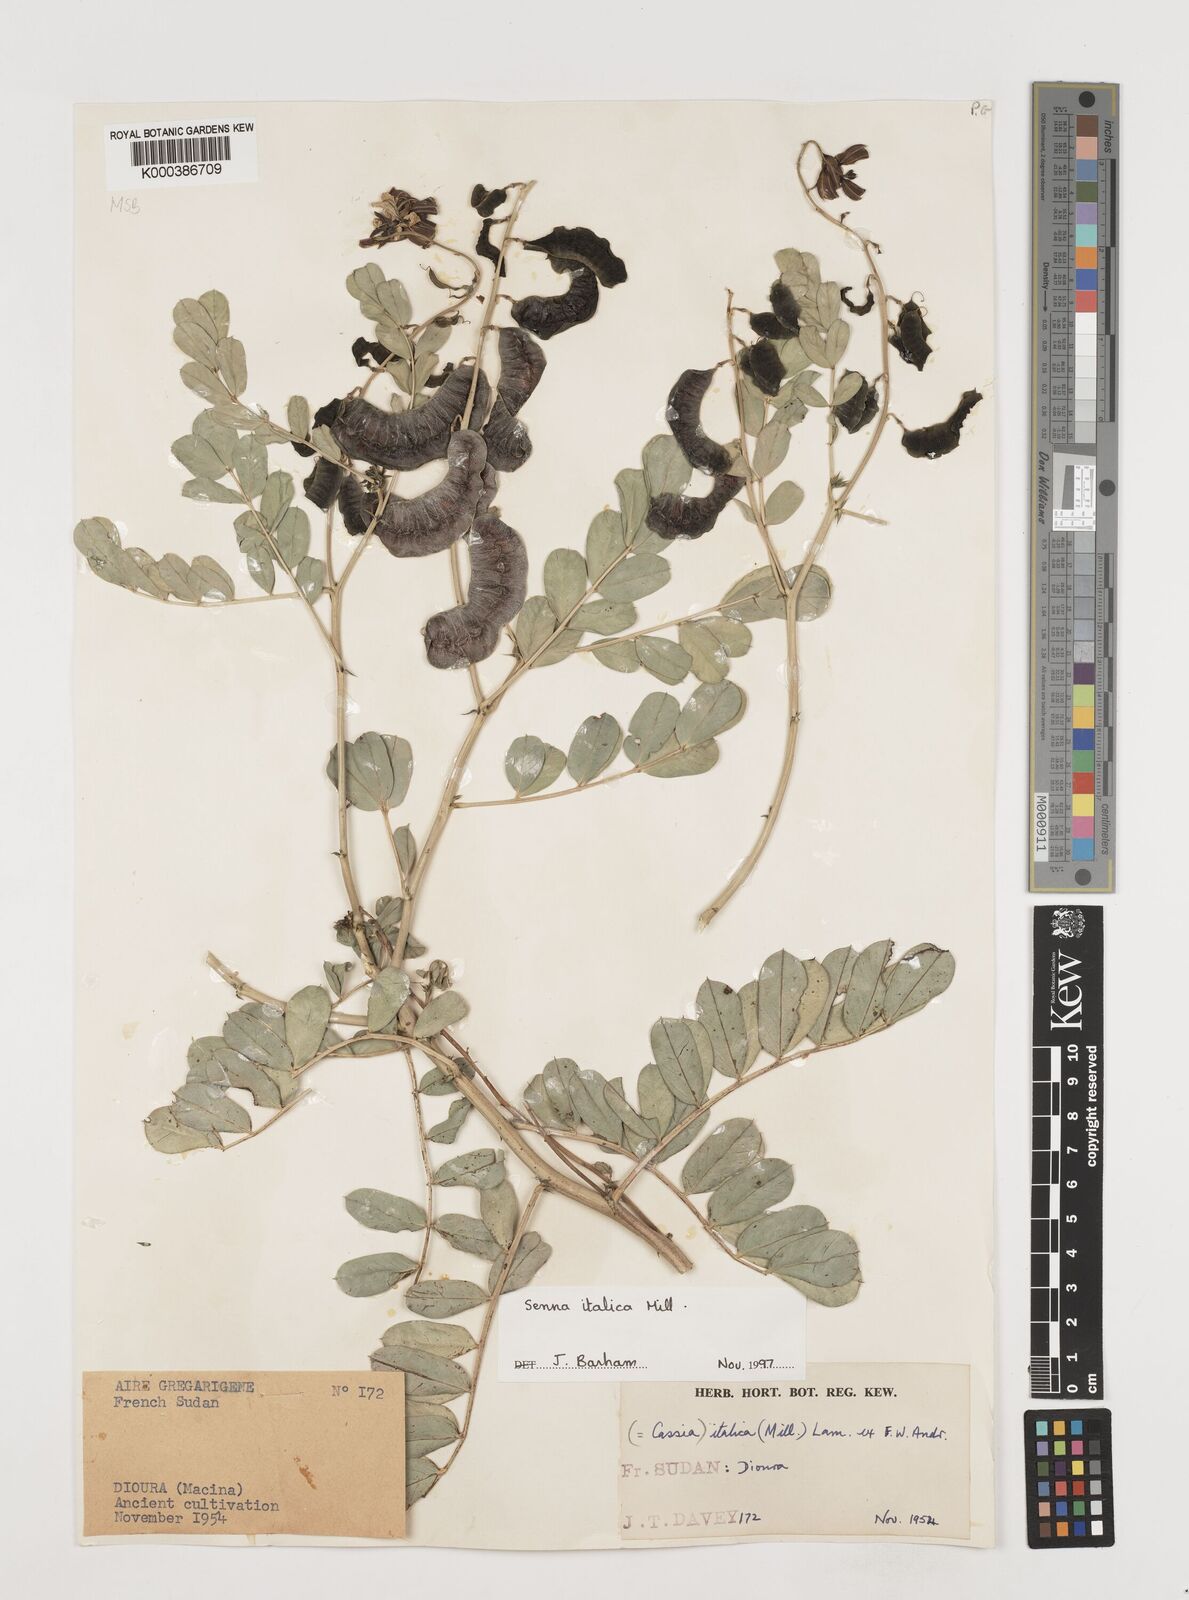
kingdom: Plantae
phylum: Tracheophyta
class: Magnoliopsida
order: Fabales
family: Fabaceae
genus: Cassia
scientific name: Cassia
